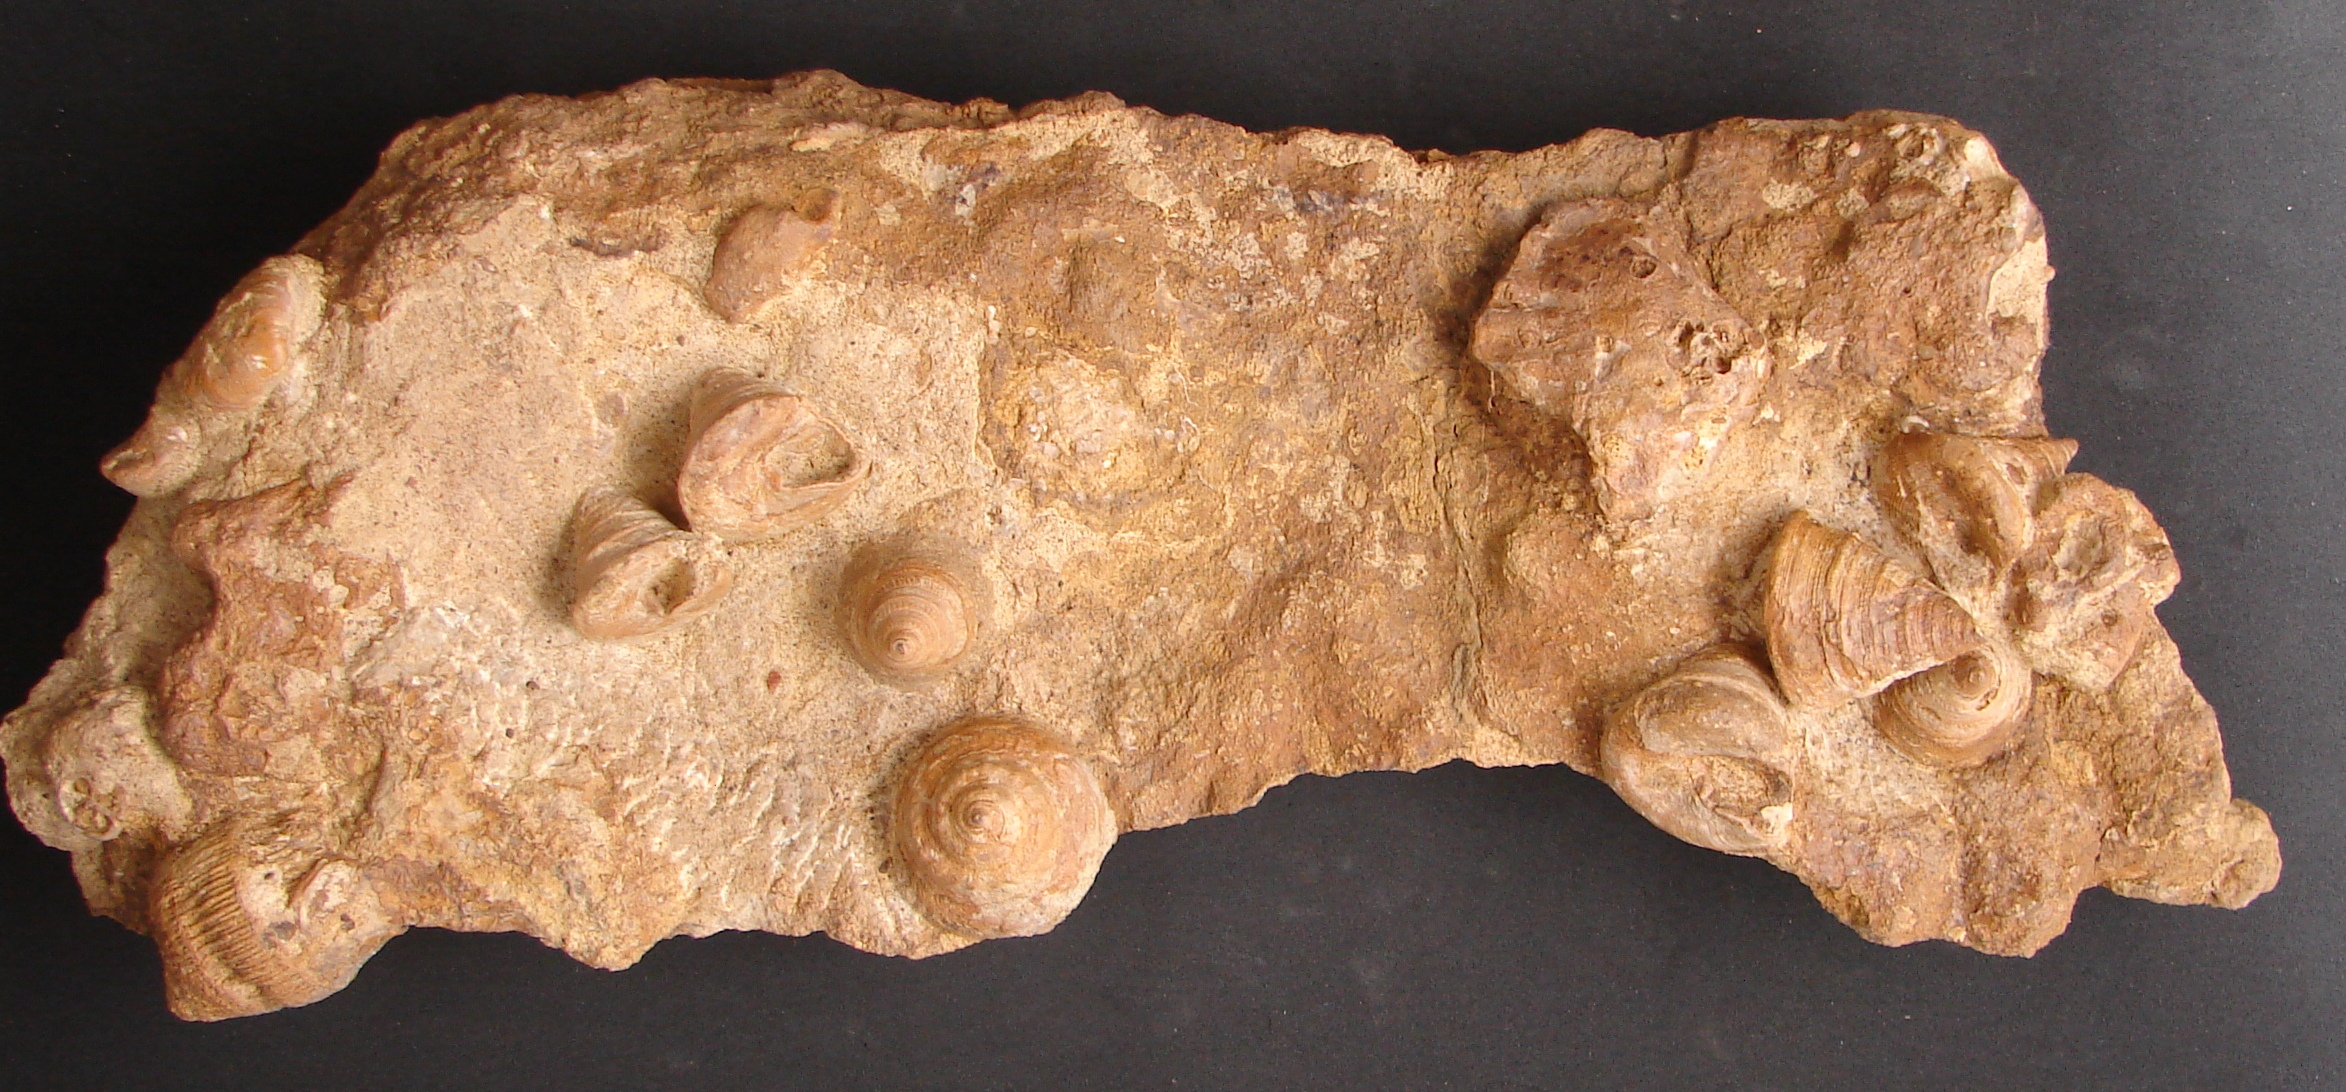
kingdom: Animalia
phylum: Mollusca
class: Gastropoda
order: Pleurotomariida
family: Pleurotomariidae
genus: Obornella
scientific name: Obornella Pleurotomaria lentiformis
